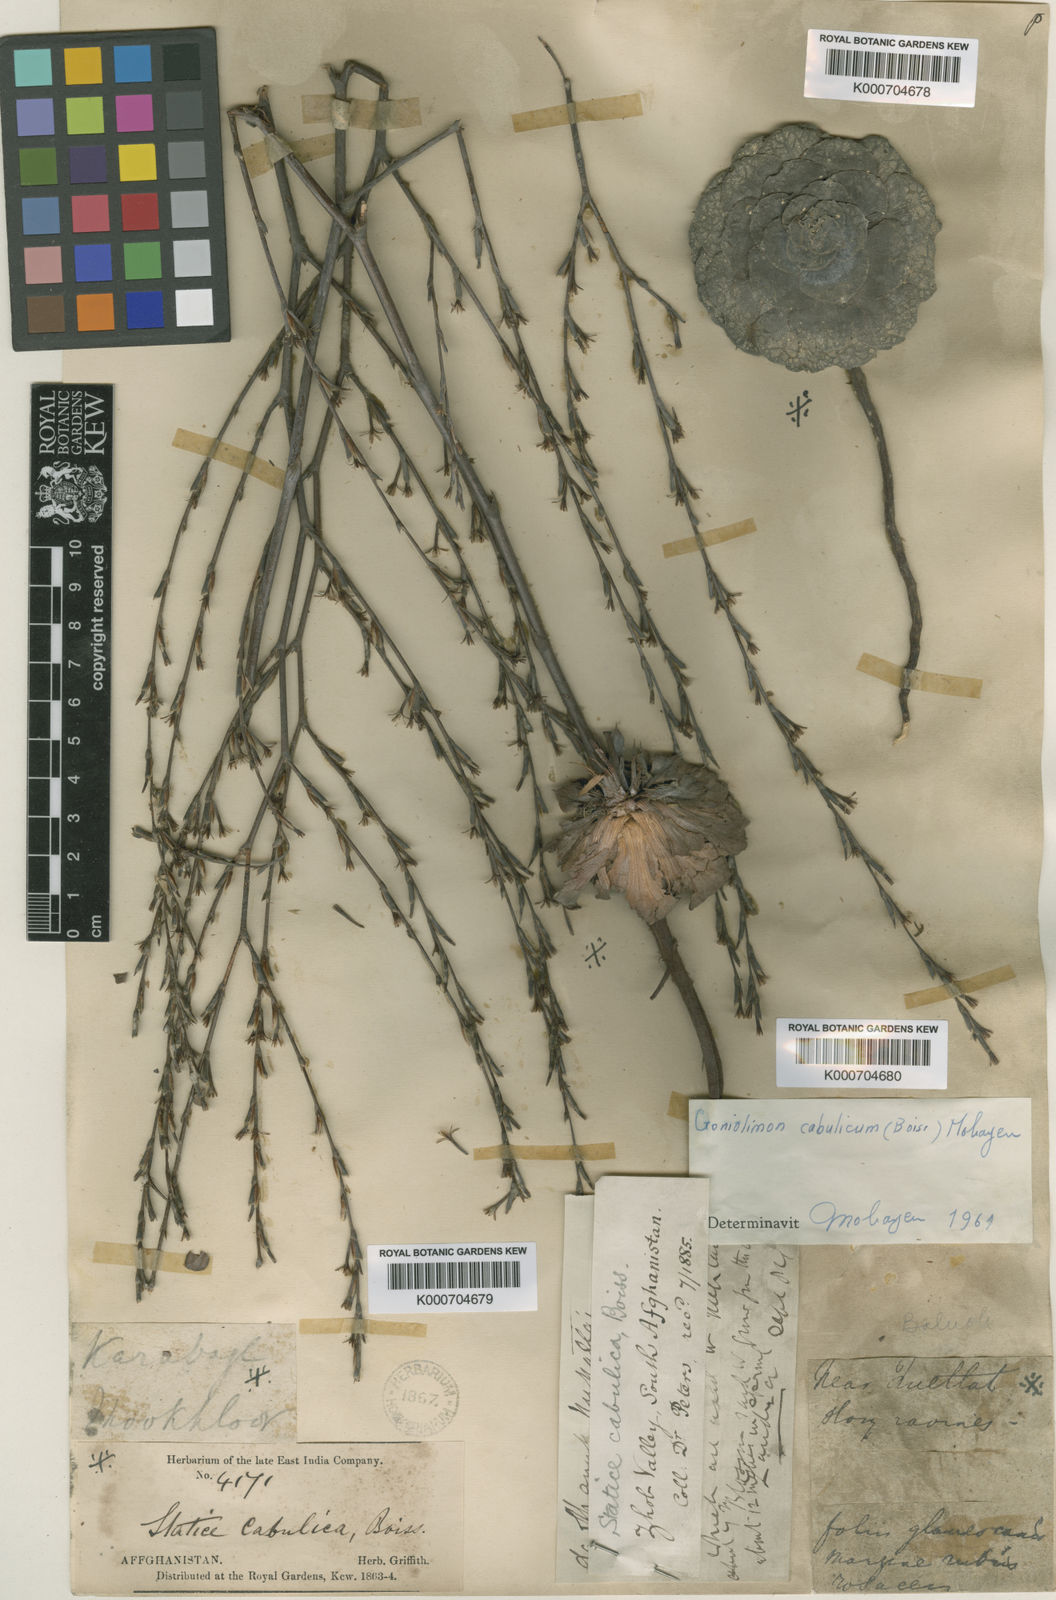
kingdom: Plantae
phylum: Tracheophyta
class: Magnoliopsida
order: Caryophyllales
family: Plumbaginaceae
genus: Bukiniczia
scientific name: Bukiniczia cabulica
